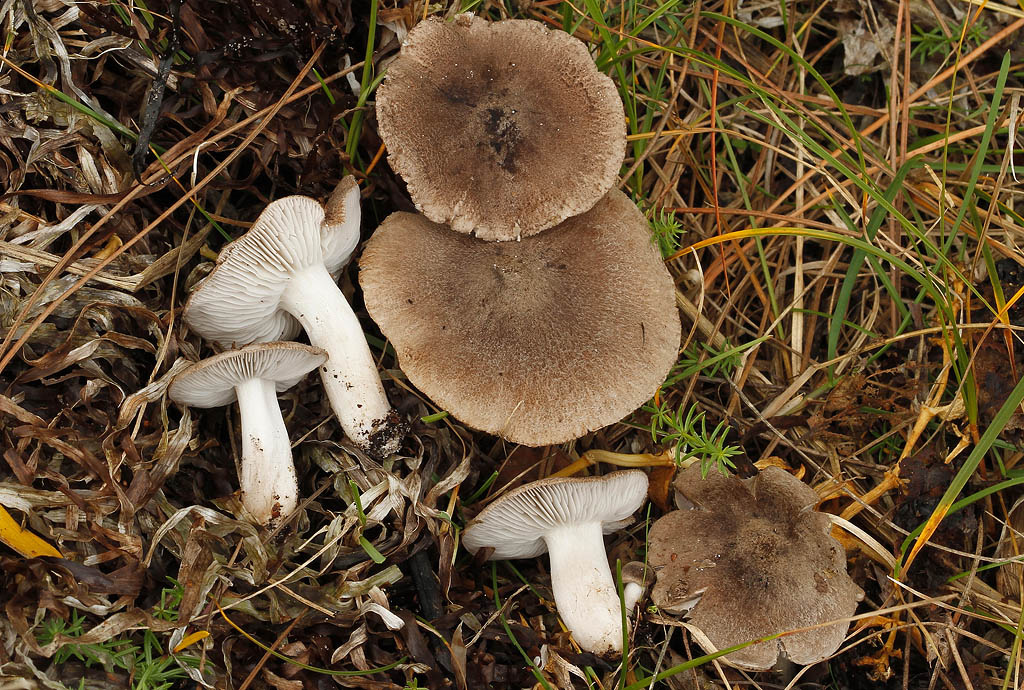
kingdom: Fungi
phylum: Basidiomycota
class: Agaricomycetes
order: Agaricales
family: Tricholomataceae
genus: Tricholoma
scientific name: Tricholoma terreum
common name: jordfarvet ridderhat
